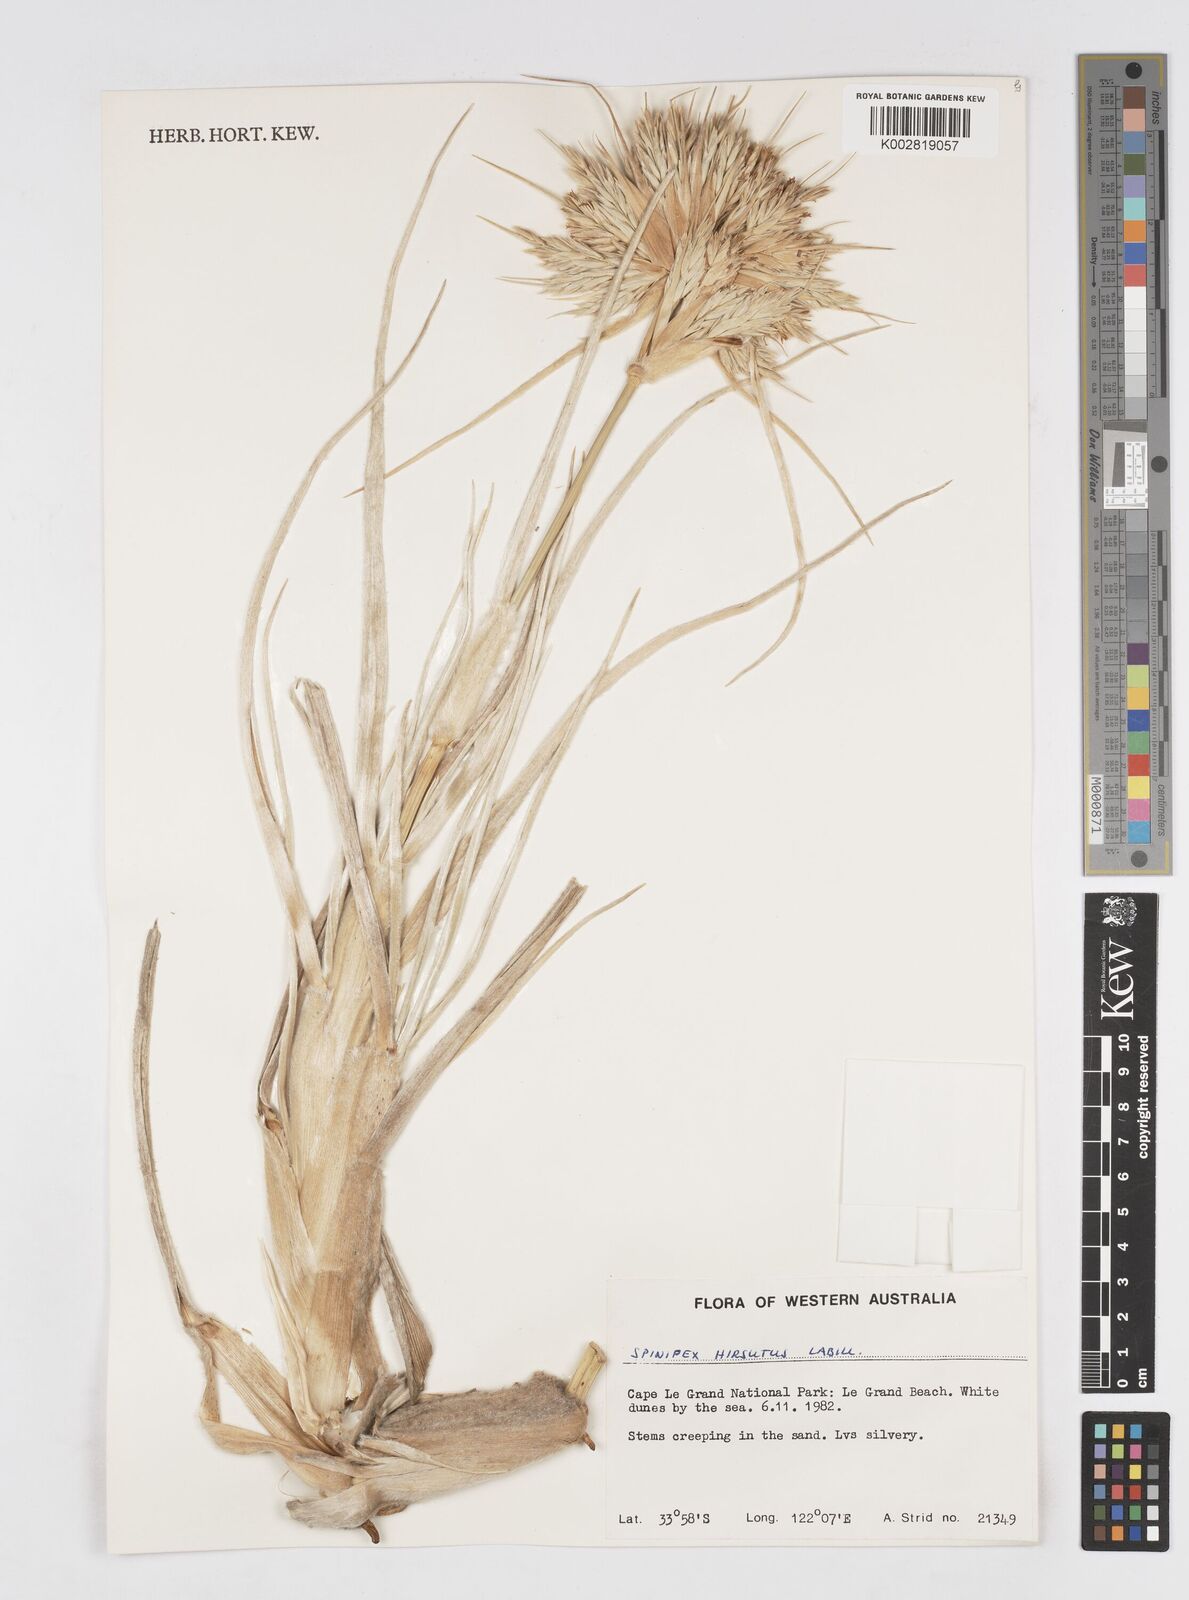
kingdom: Plantae
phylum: Tracheophyta
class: Liliopsida
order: Poales
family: Poaceae
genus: Spinifex
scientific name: Spinifex hirsutus
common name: Hairy spinifex
